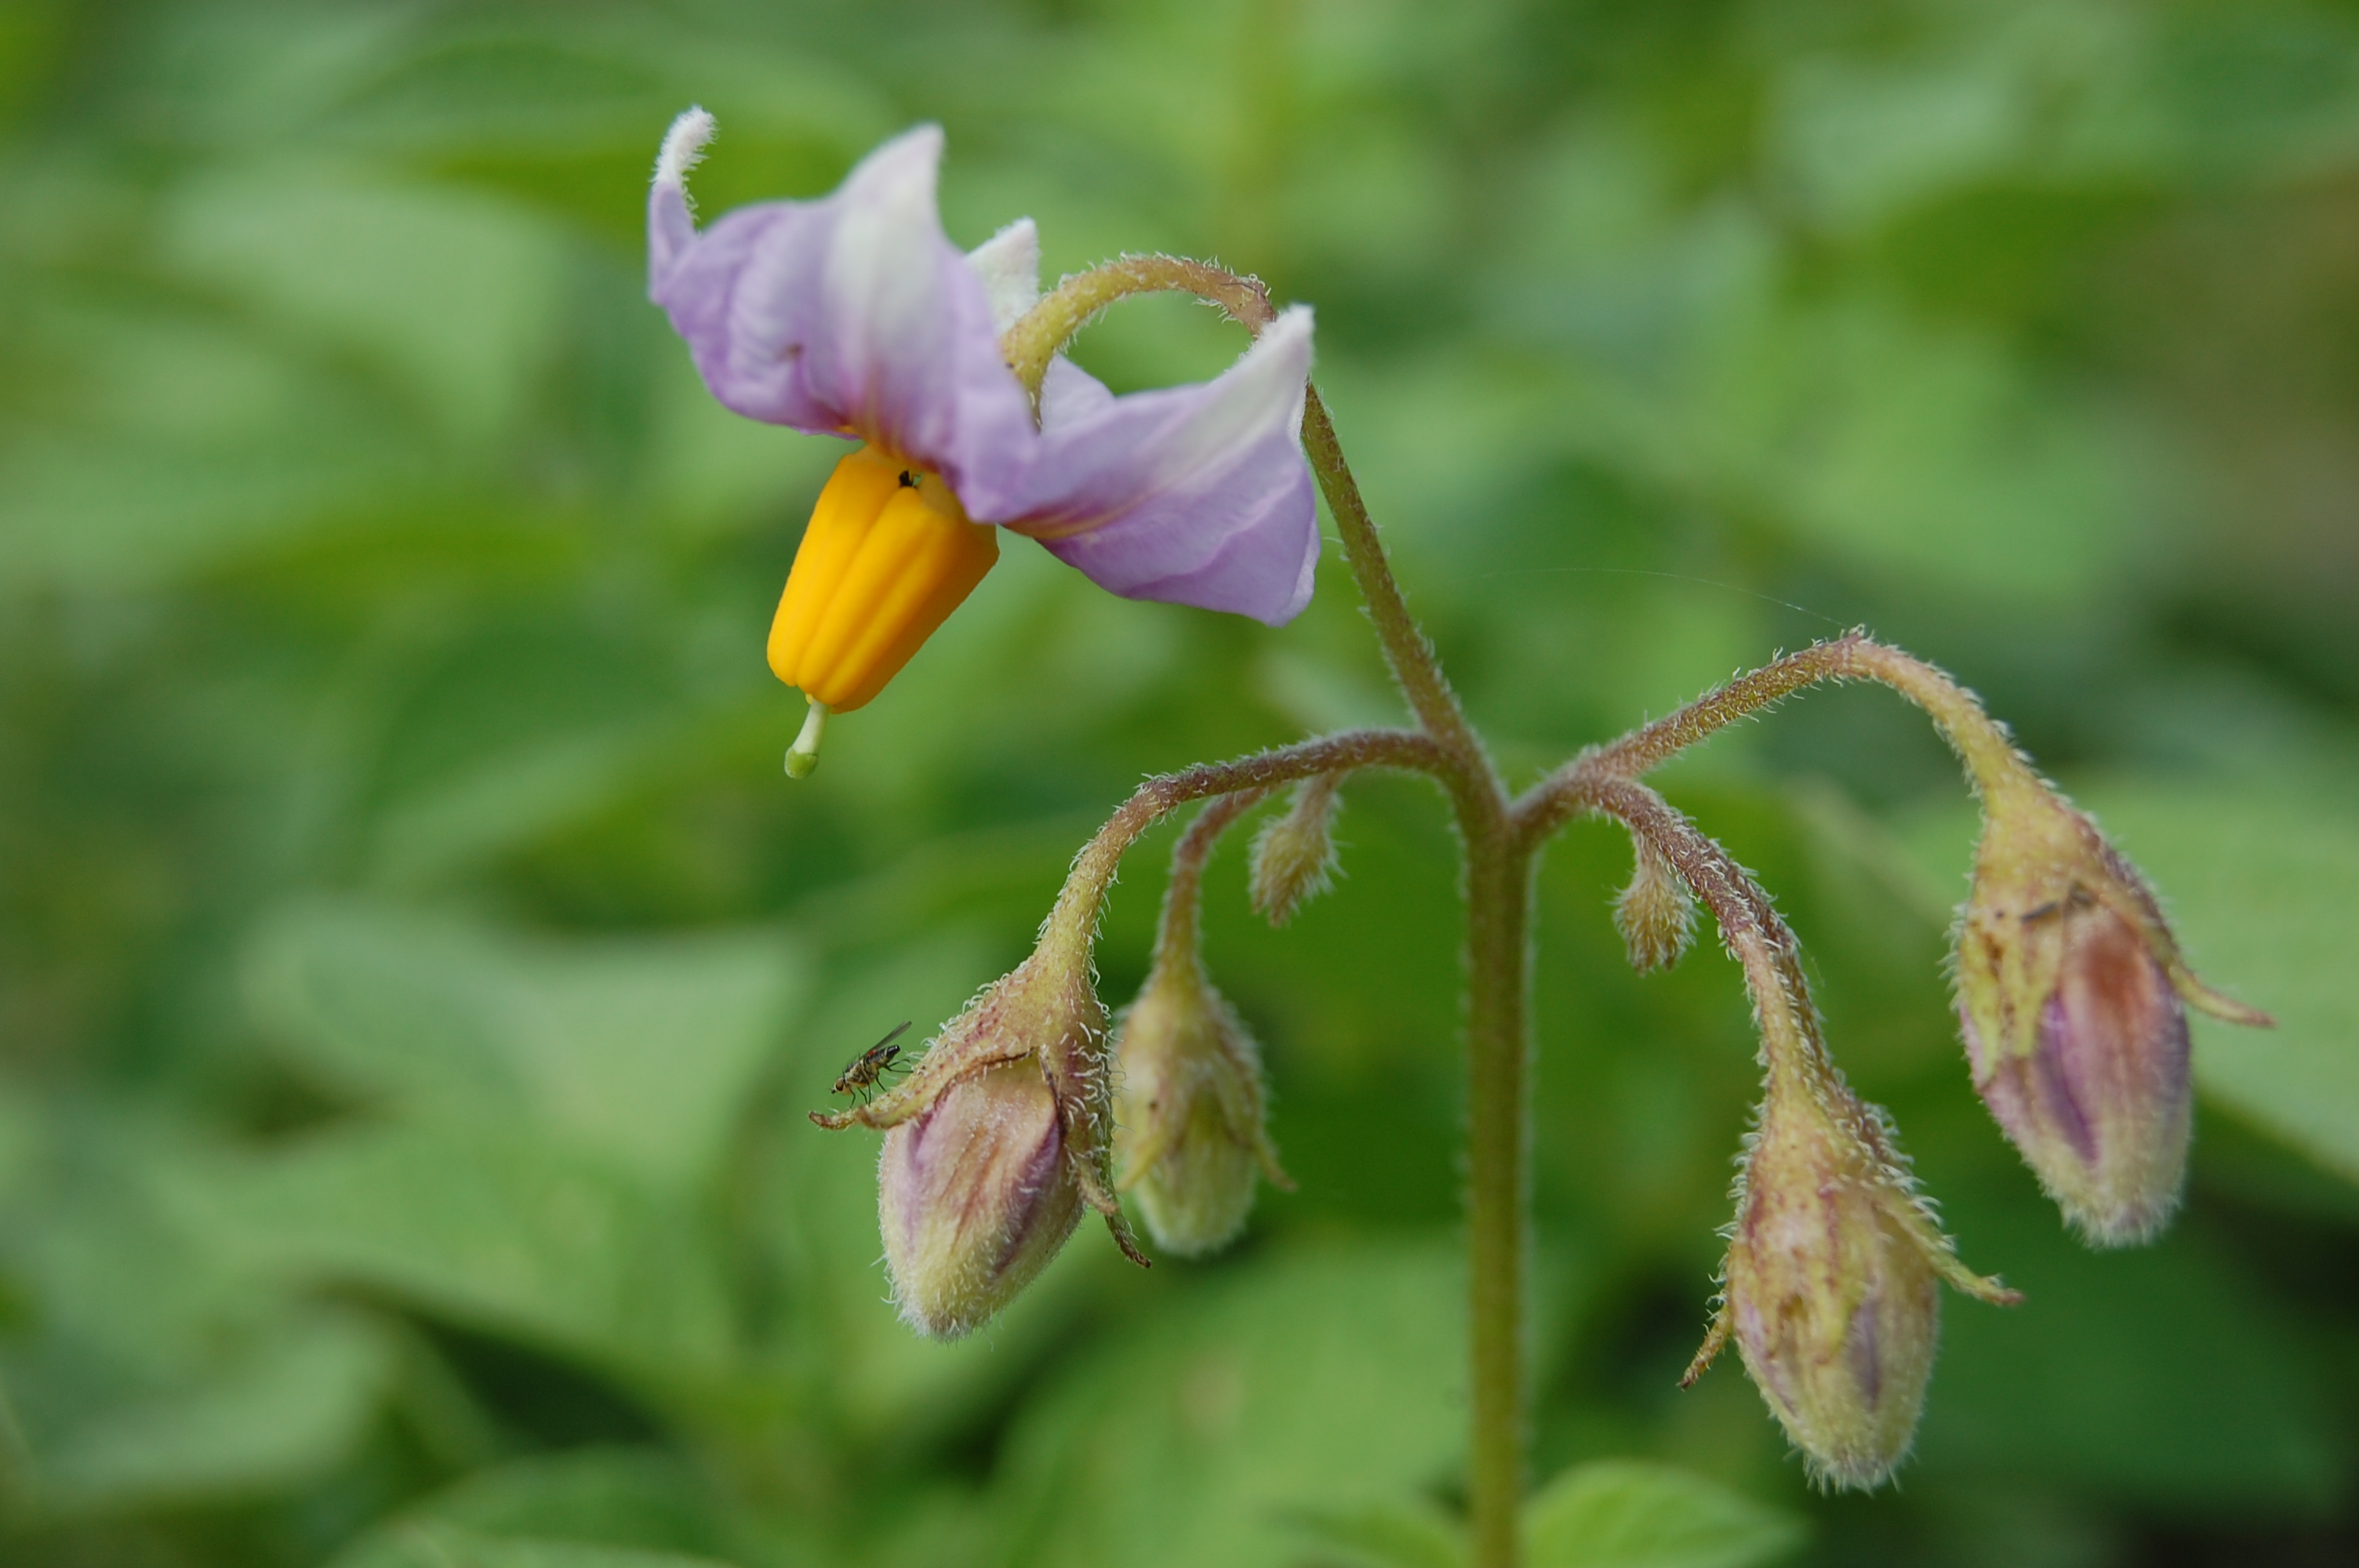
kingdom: Plantae
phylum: Tracheophyta
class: Magnoliopsida
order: Solanales
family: Solanaceae
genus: Solanum
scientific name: Solanum tuberosum
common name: Potato
